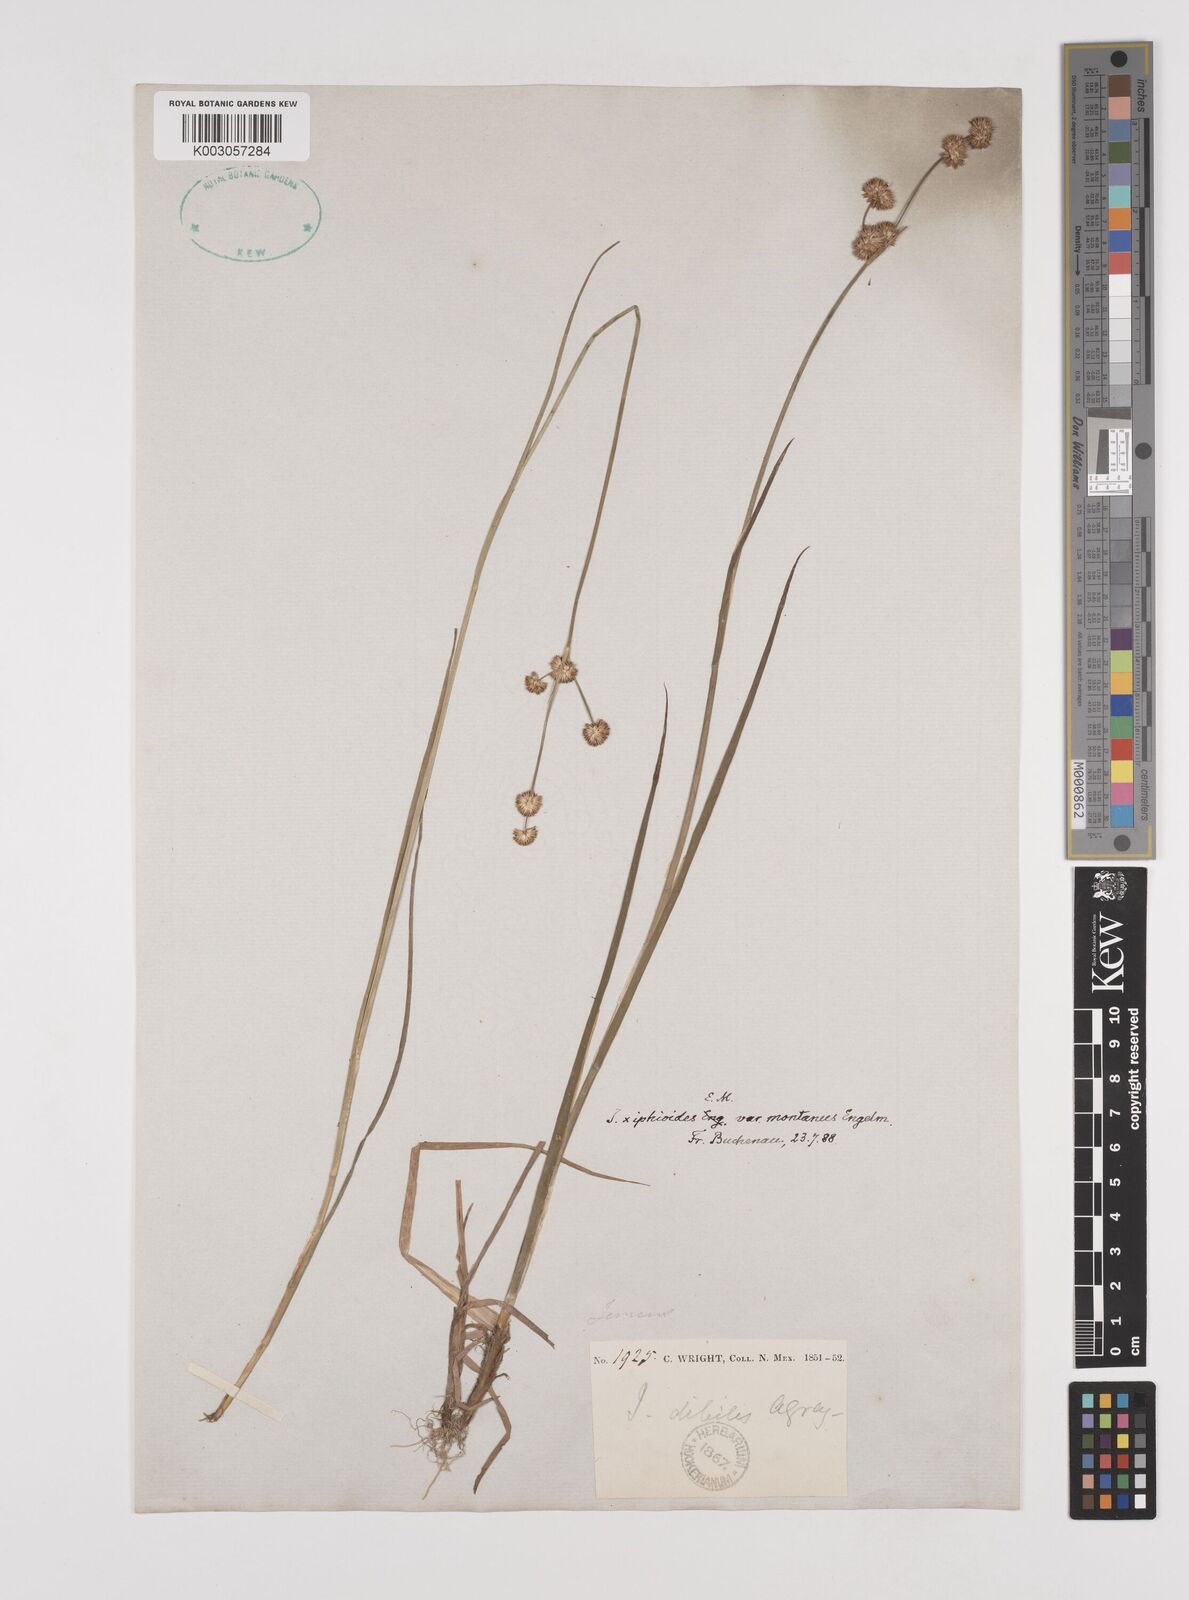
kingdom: Plantae
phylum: Tracheophyta
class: Liliopsida
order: Poales
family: Juncaceae
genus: Juncus
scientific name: Juncus saximontanus
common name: Rocky mountain rush
